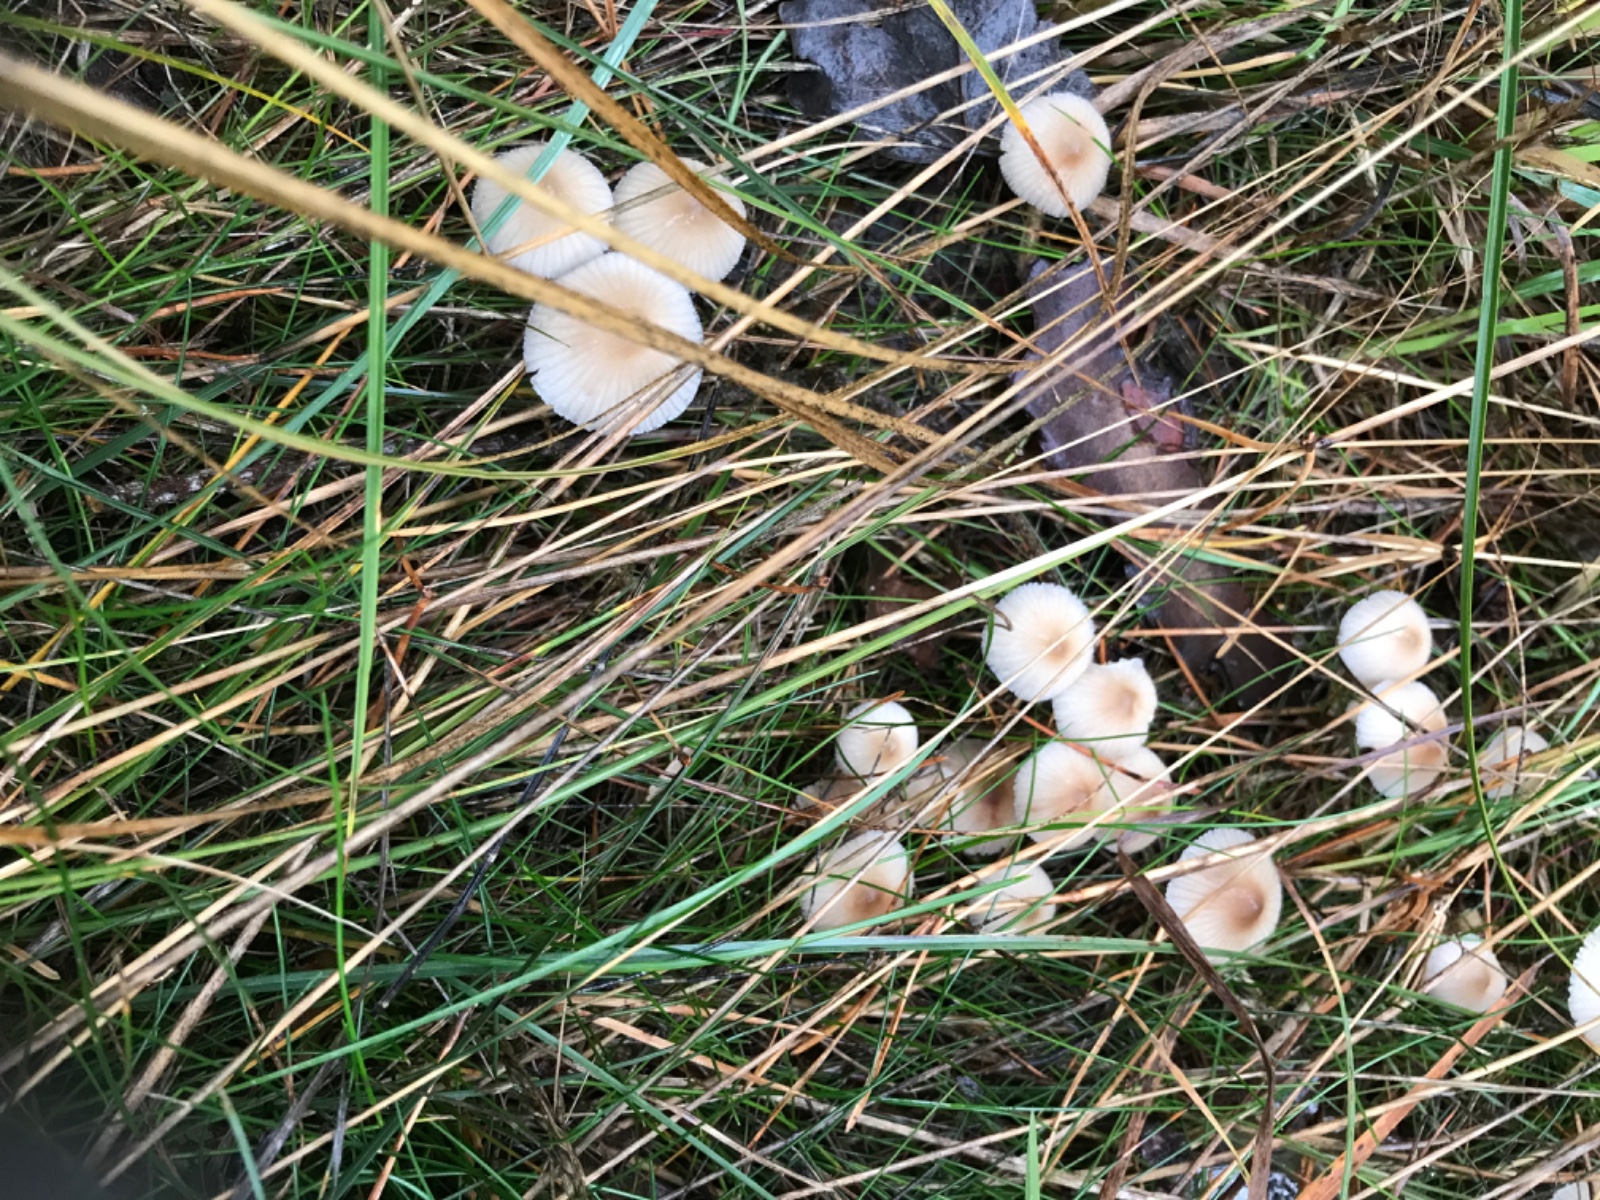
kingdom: Fungi
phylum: Basidiomycota
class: Agaricomycetes
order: Agaricales
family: Mycenaceae
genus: Mycena
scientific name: Mycena zephirus
